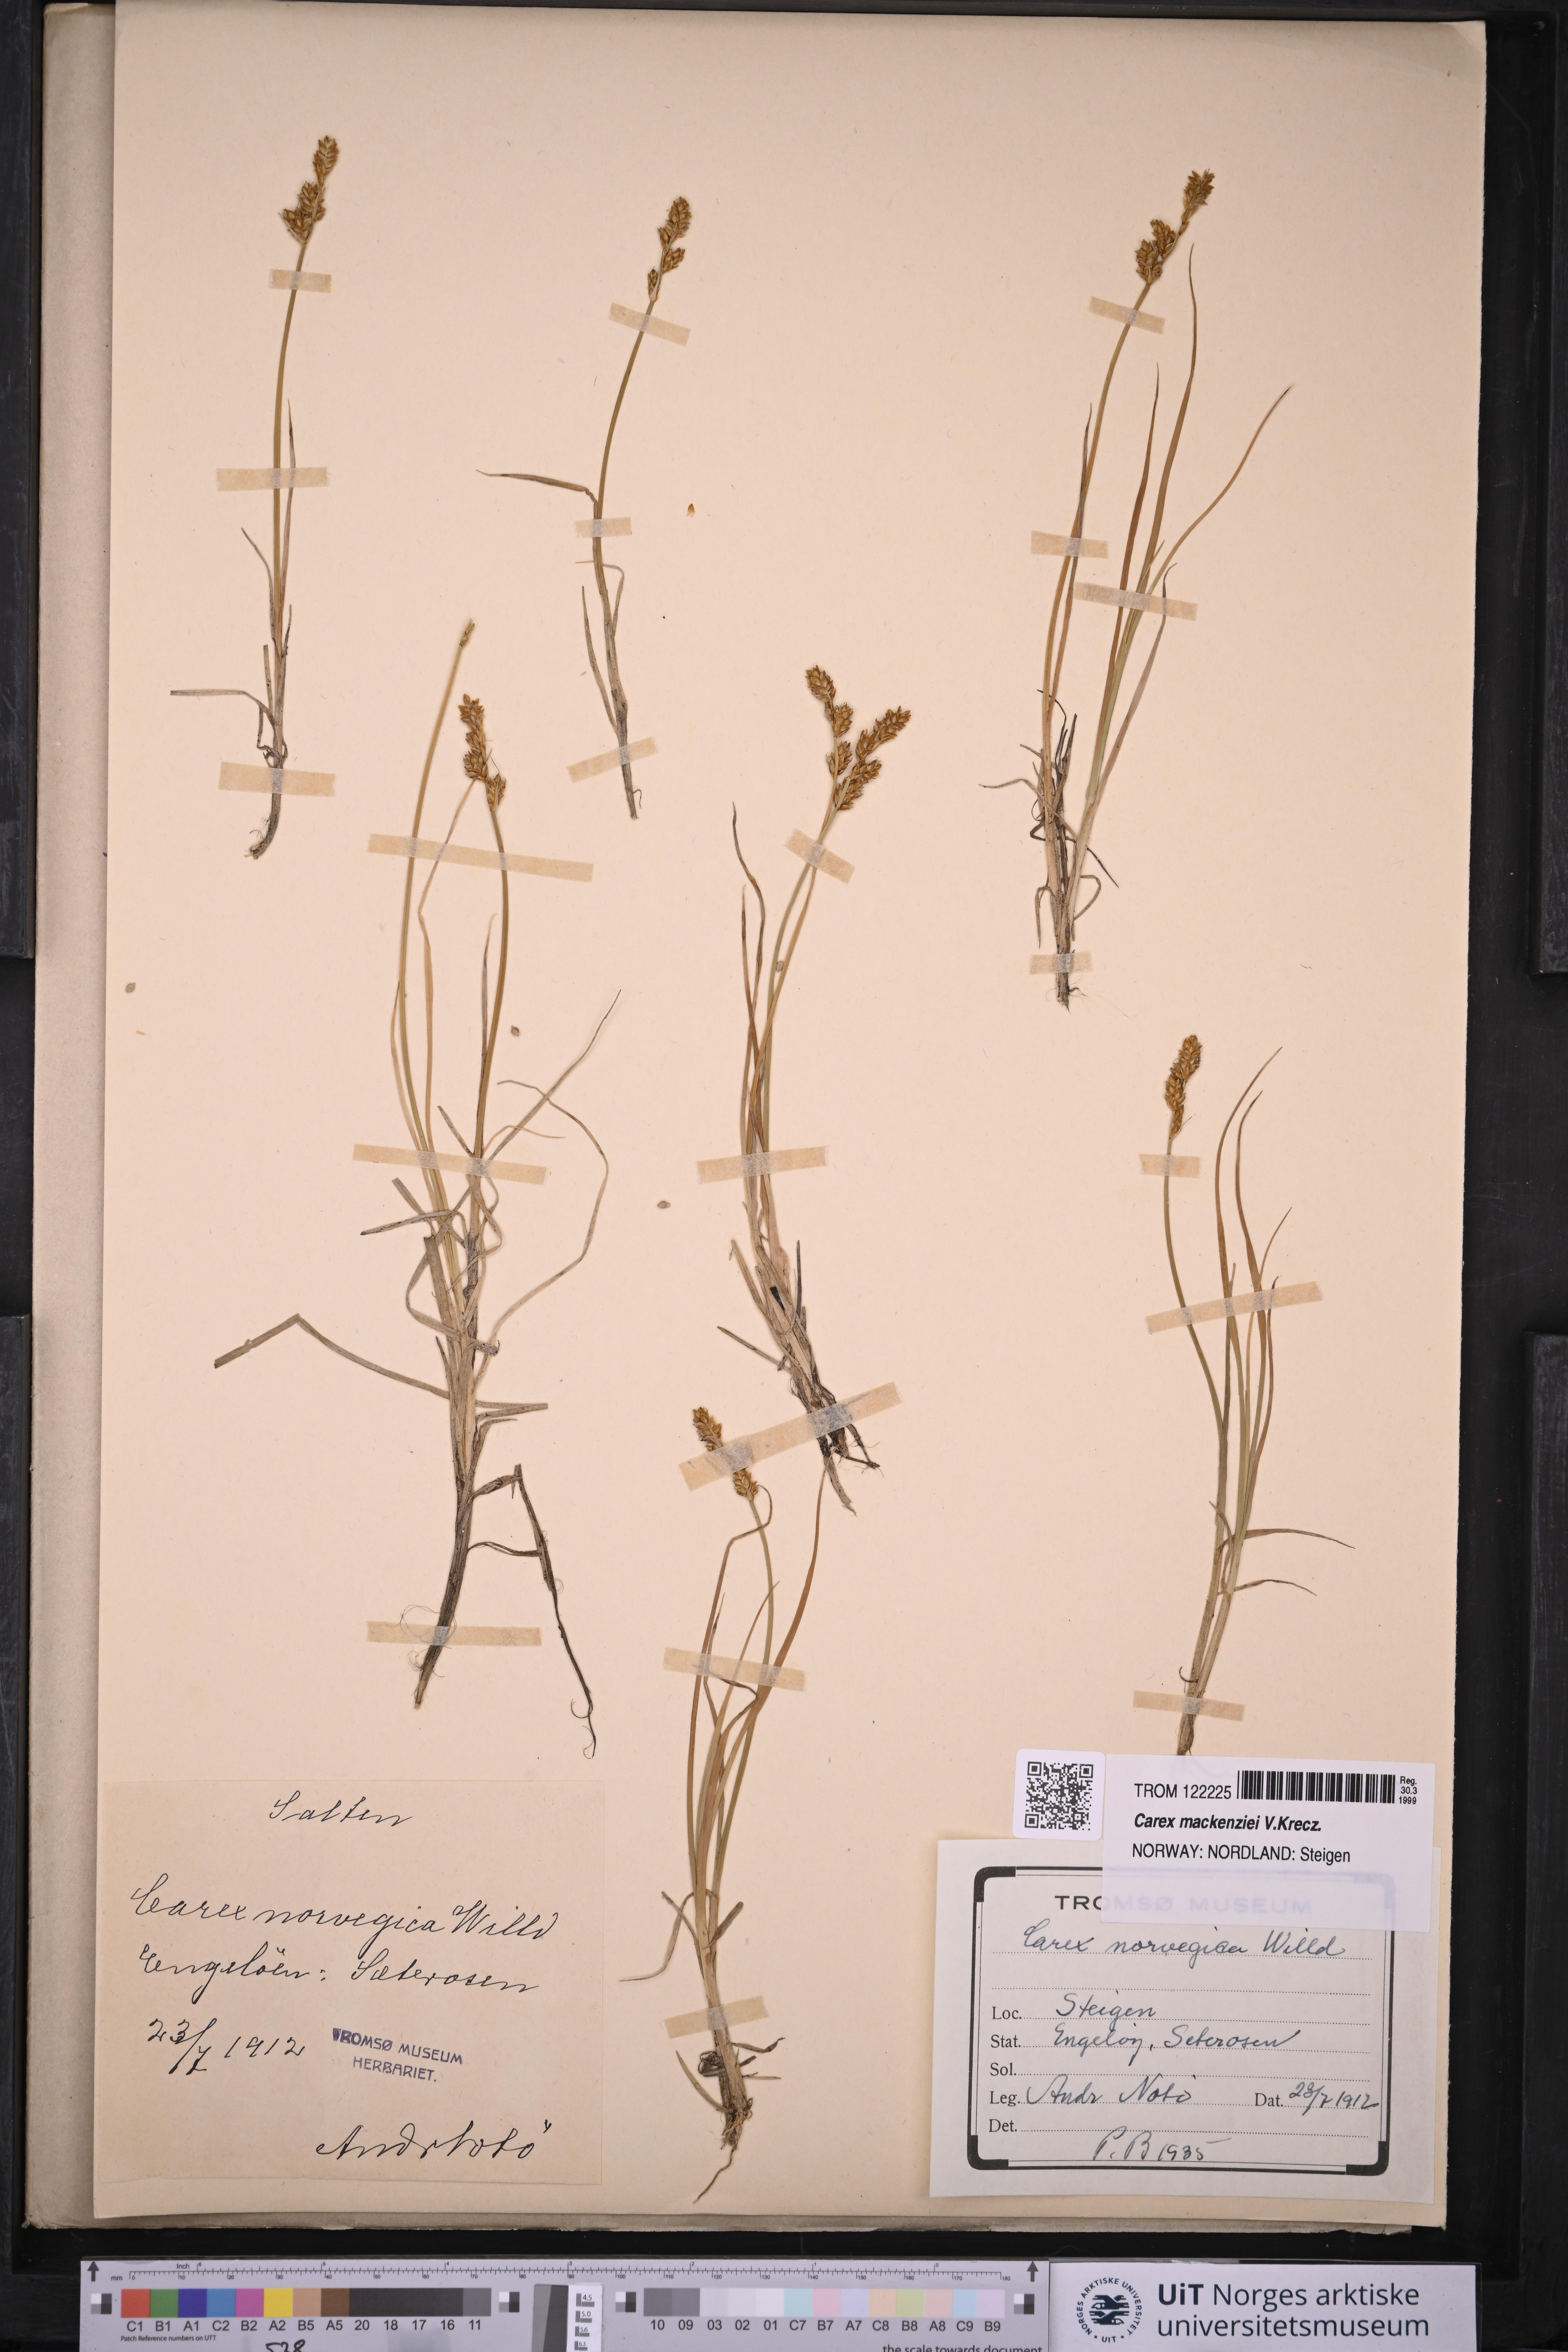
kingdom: Plantae
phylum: Tracheophyta
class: Liliopsida
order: Poales
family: Cyperaceae
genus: Carex
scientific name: Carex mackenziei
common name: Mackenzie's sedge
